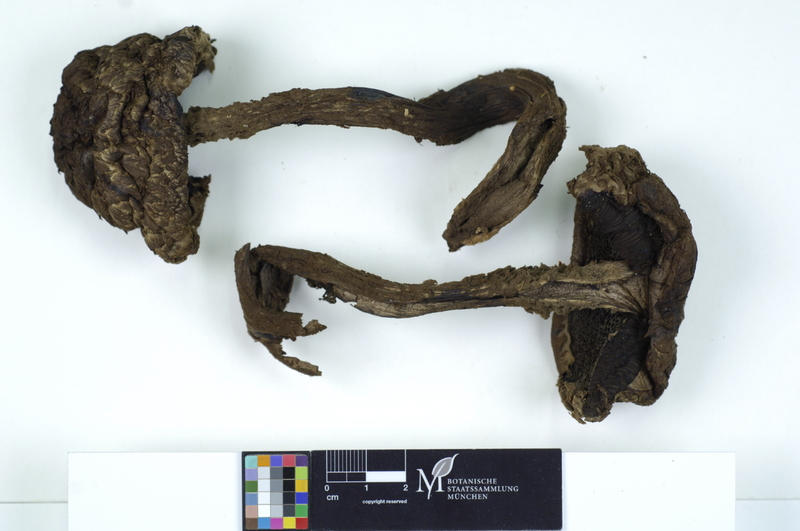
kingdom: Fungi
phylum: Basidiomycota
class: Agaricomycetes
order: Boletales
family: Boletaceae
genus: Strobilomyces
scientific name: Strobilomyces strobilaceus
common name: Old man of the woods
